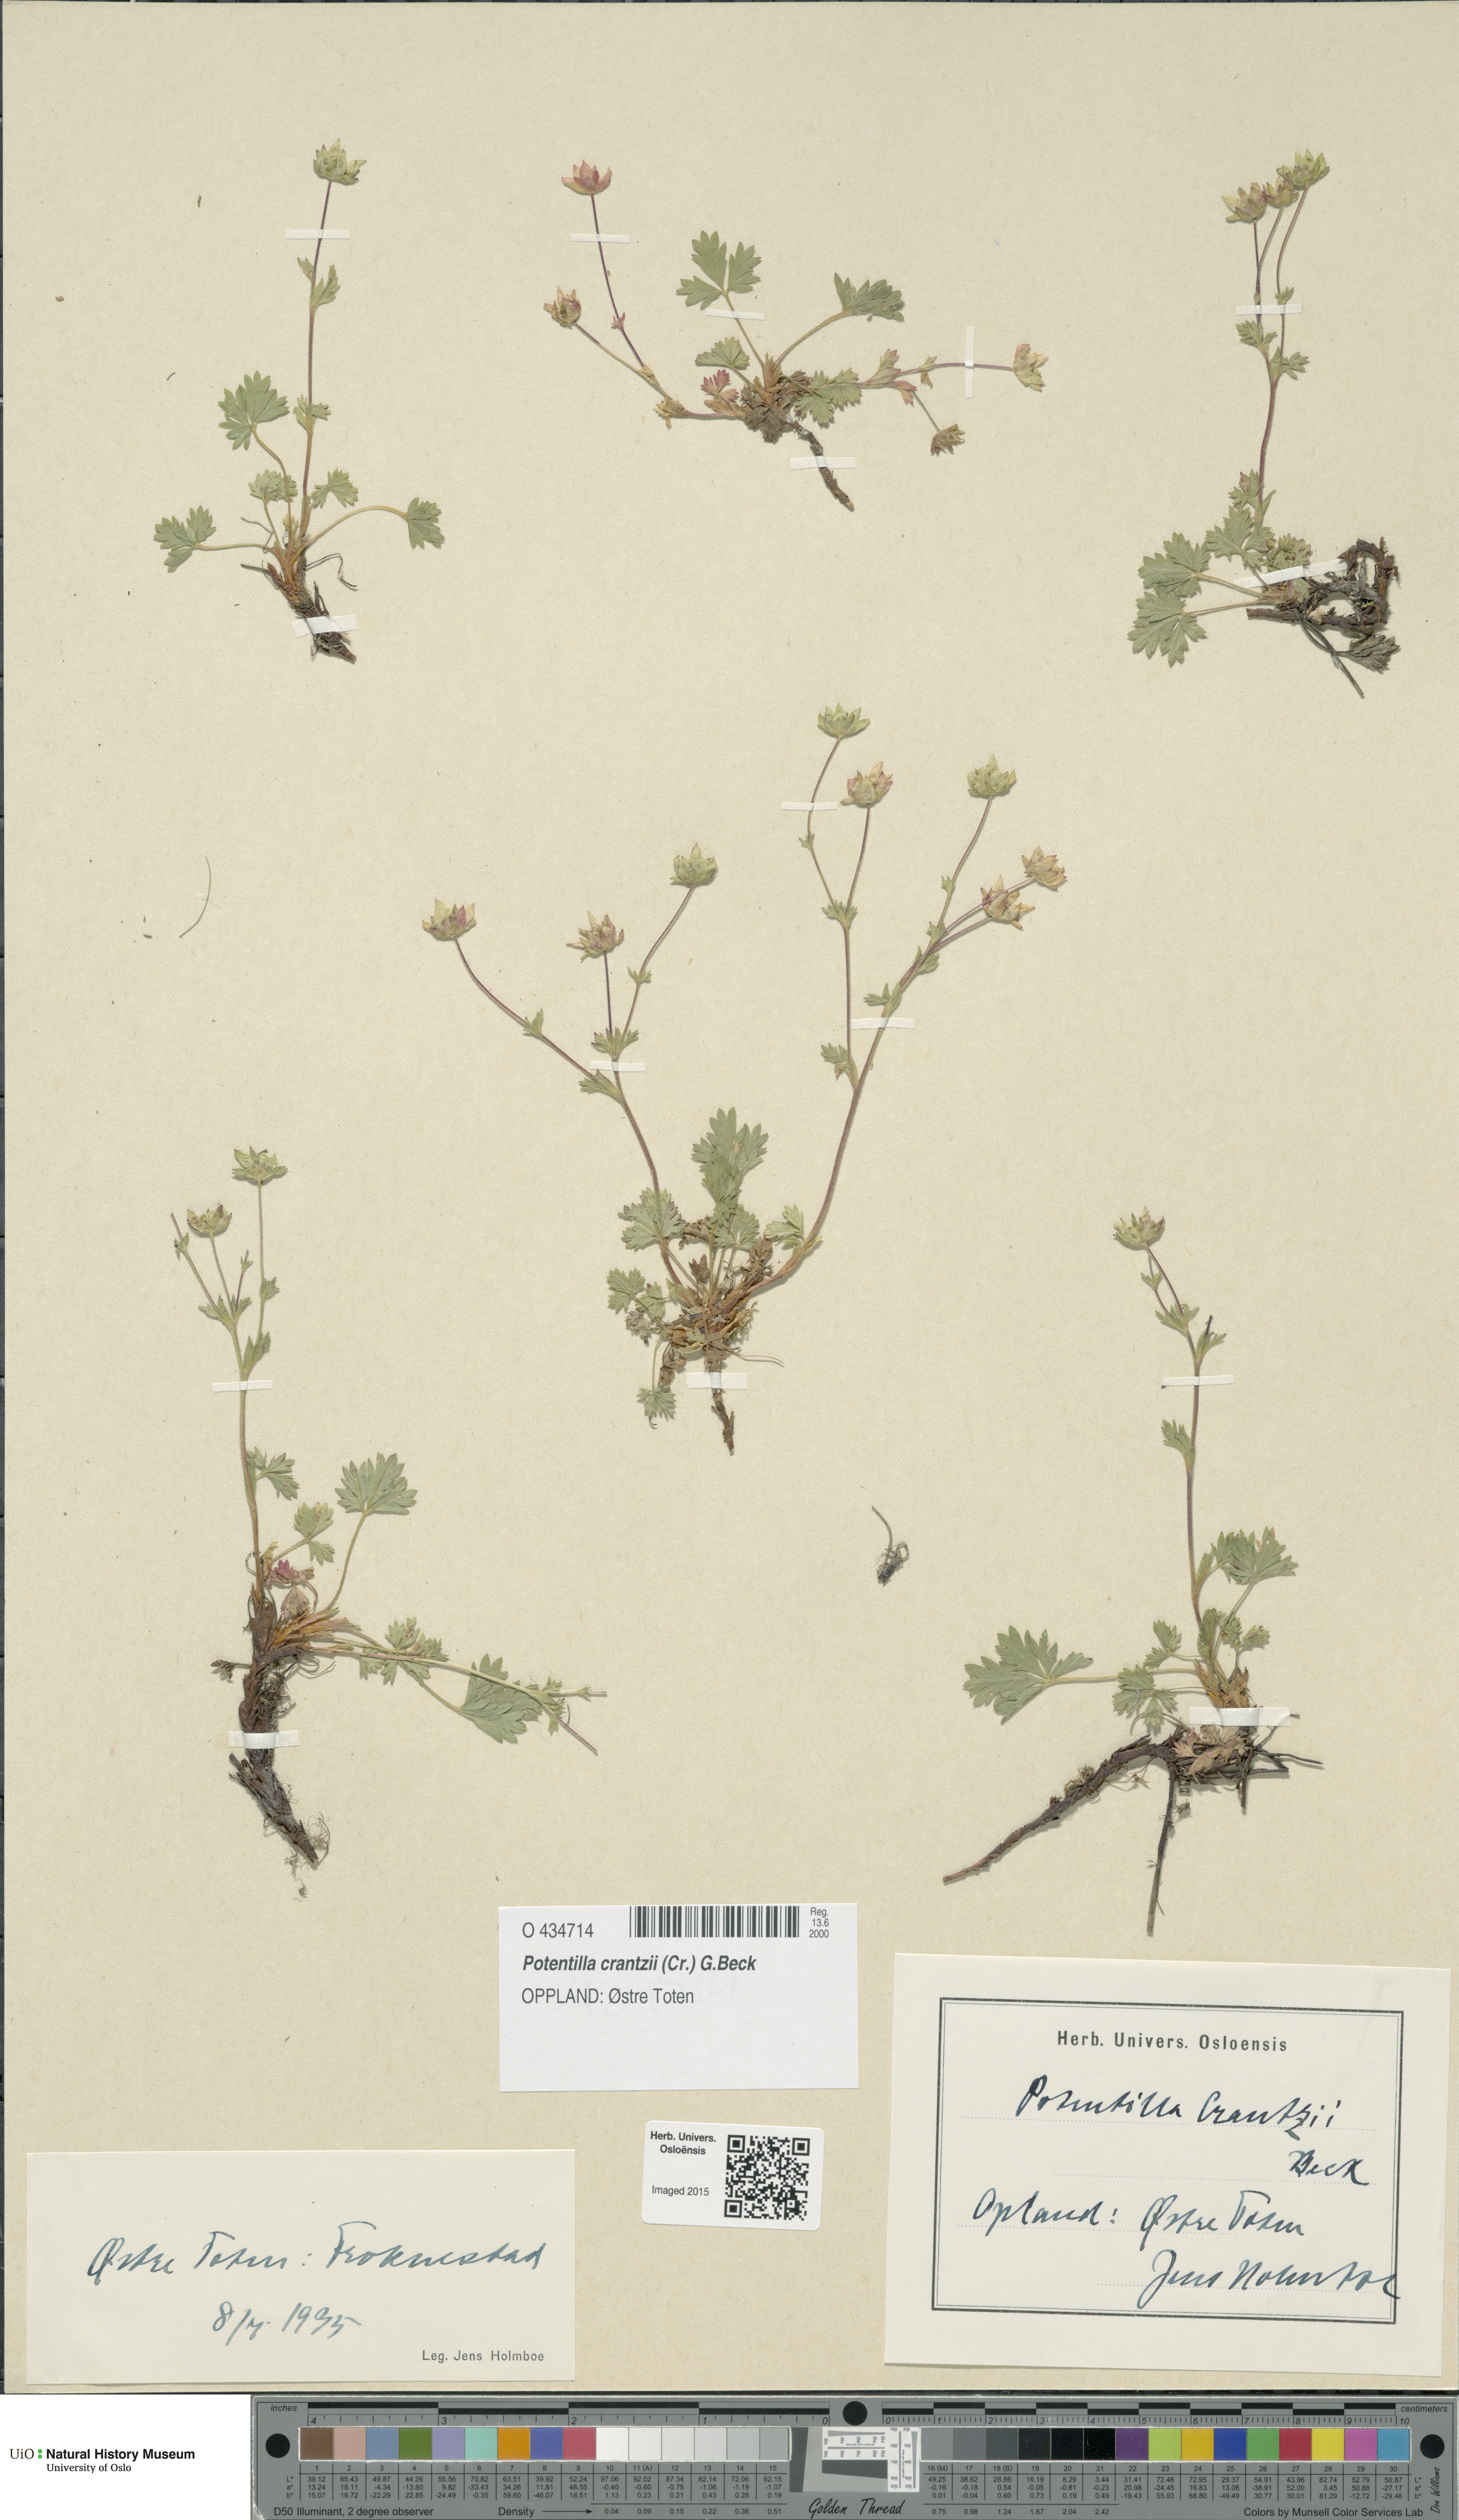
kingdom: Plantae
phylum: Tracheophyta
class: Magnoliopsida
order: Rosales
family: Rosaceae
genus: Potentilla
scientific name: Potentilla crantzii
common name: Alpine cinquefoil
